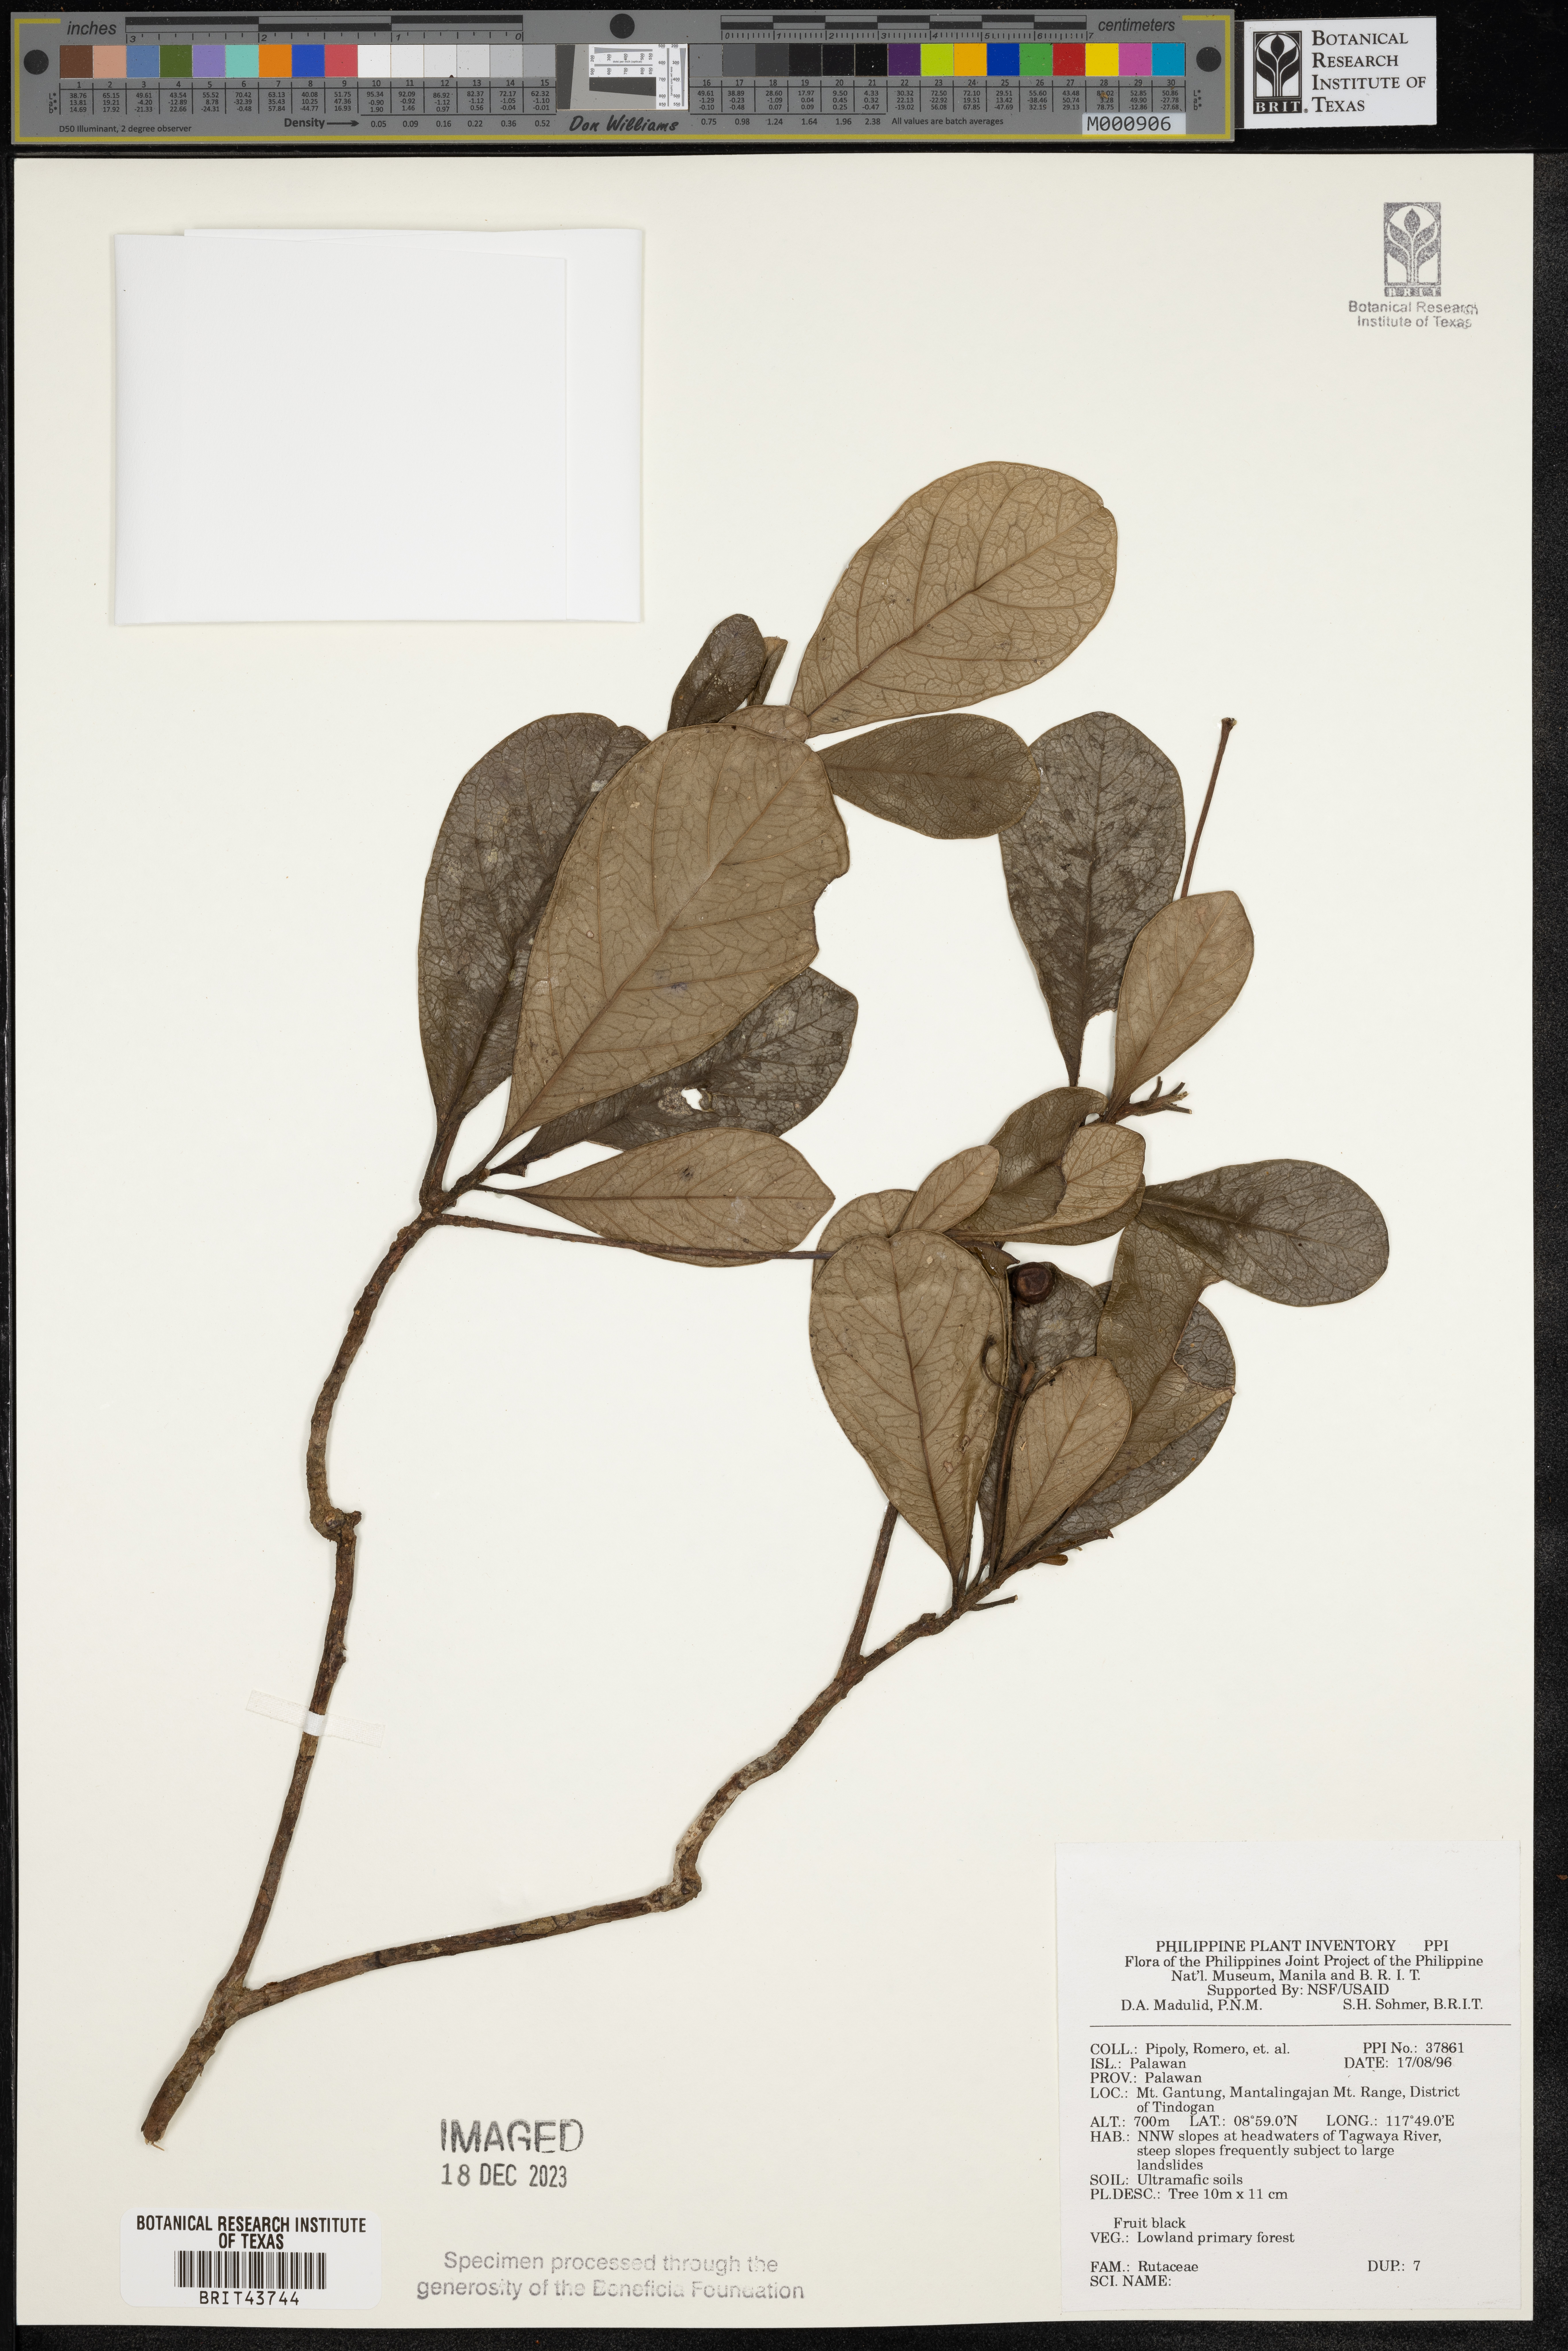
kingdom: Plantae
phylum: Tracheophyta
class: Magnoliopsida
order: Sapindales
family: Rutaceae
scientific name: Rutaceae
